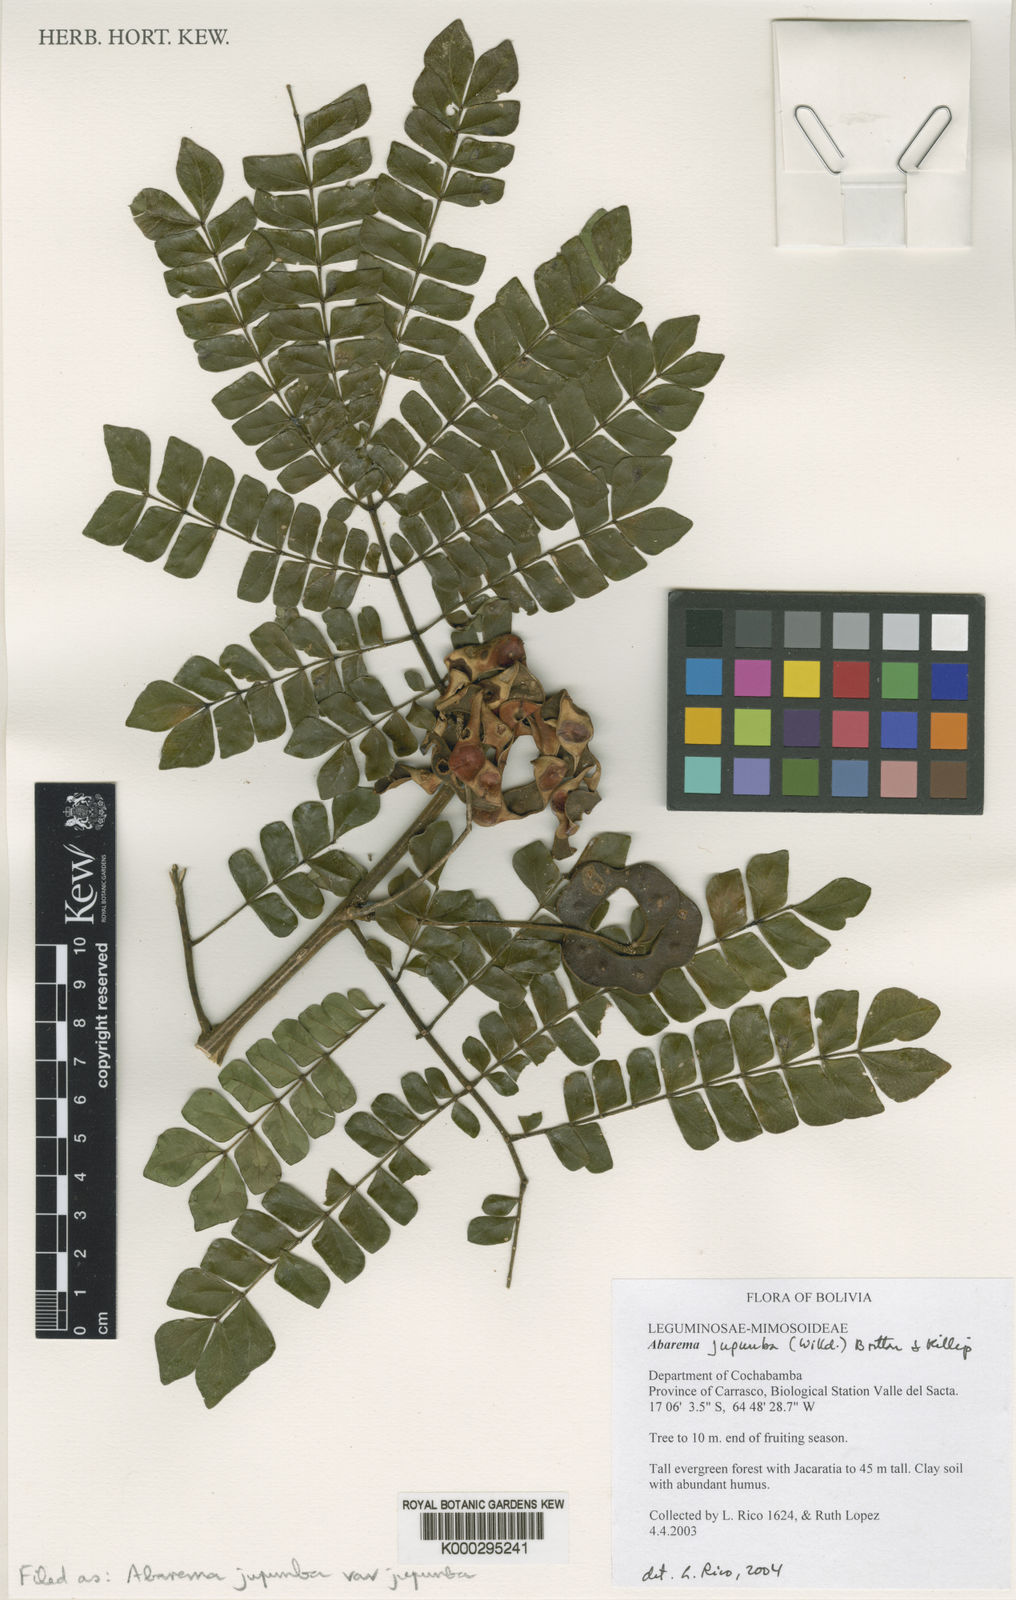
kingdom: Plantae
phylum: Tracheophyta
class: Magnoliopsida
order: Fabales
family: Fabaceae
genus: Jupunba
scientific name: Jupunba trapezifolia
